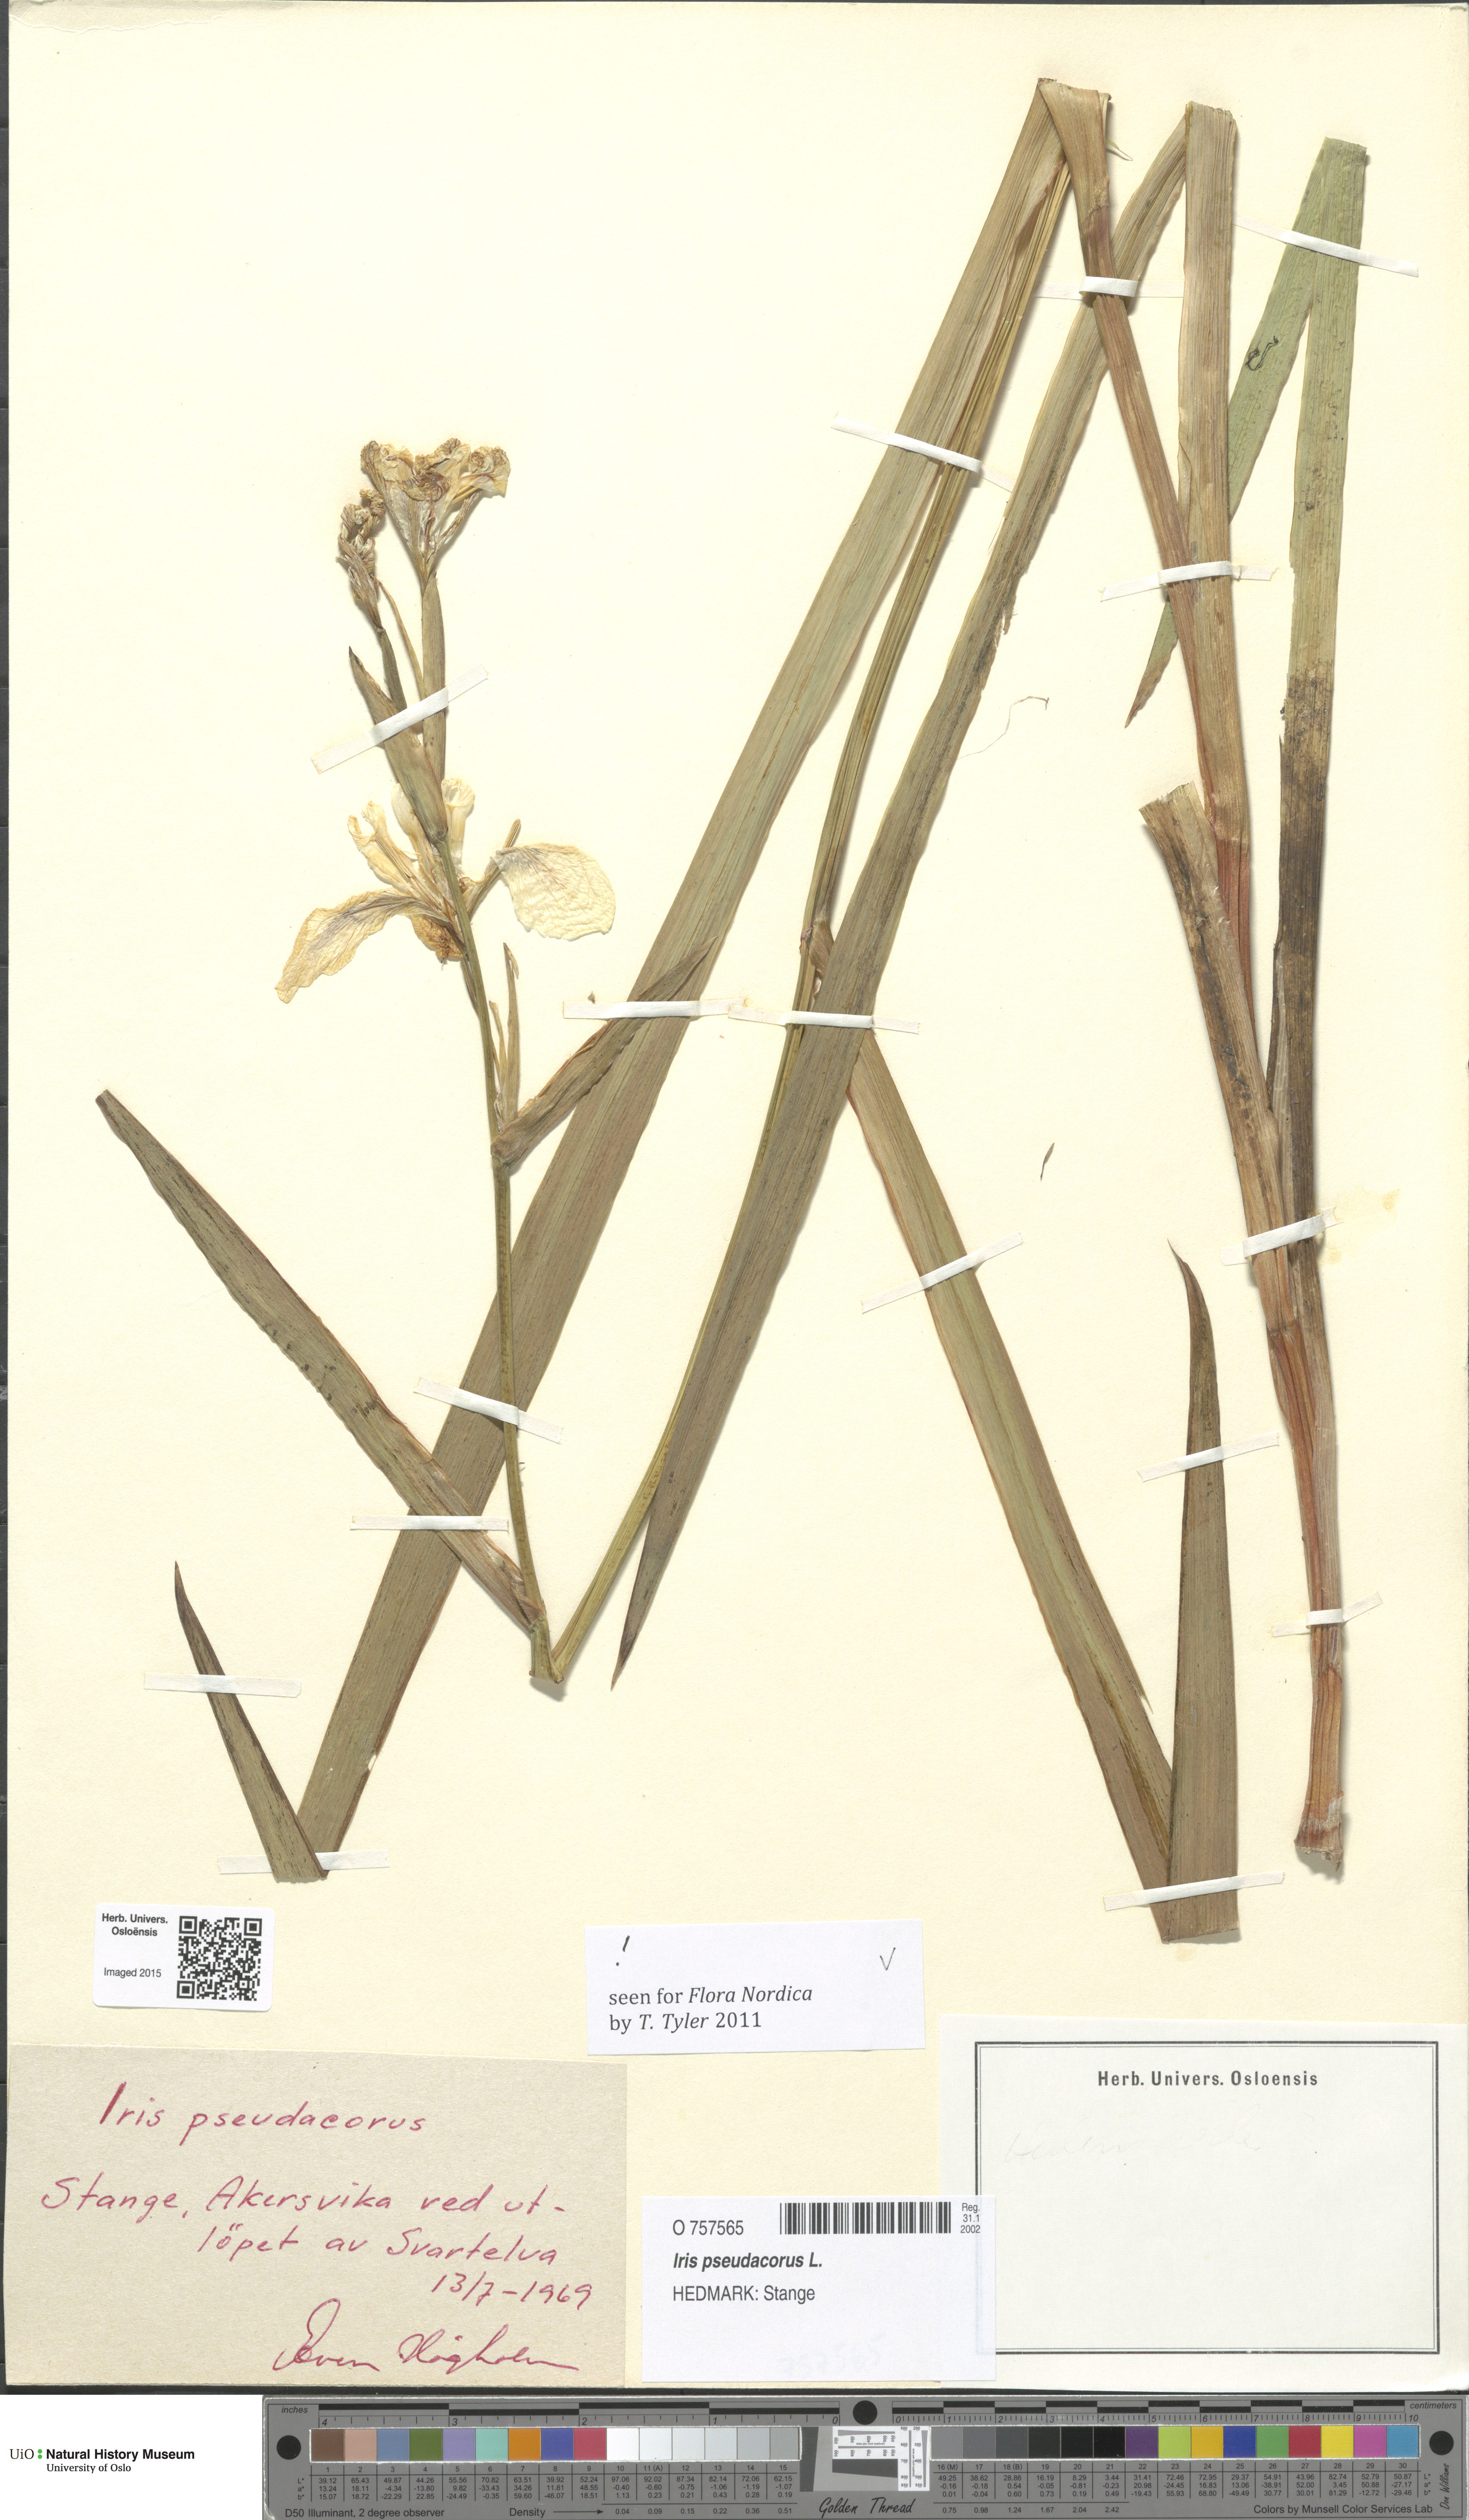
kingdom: Plantae
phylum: Tracheophyta
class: Liliopsida
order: Asparagales
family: Iridaceae
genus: Iris
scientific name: Iris pseudacorus
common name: Yellow flag
